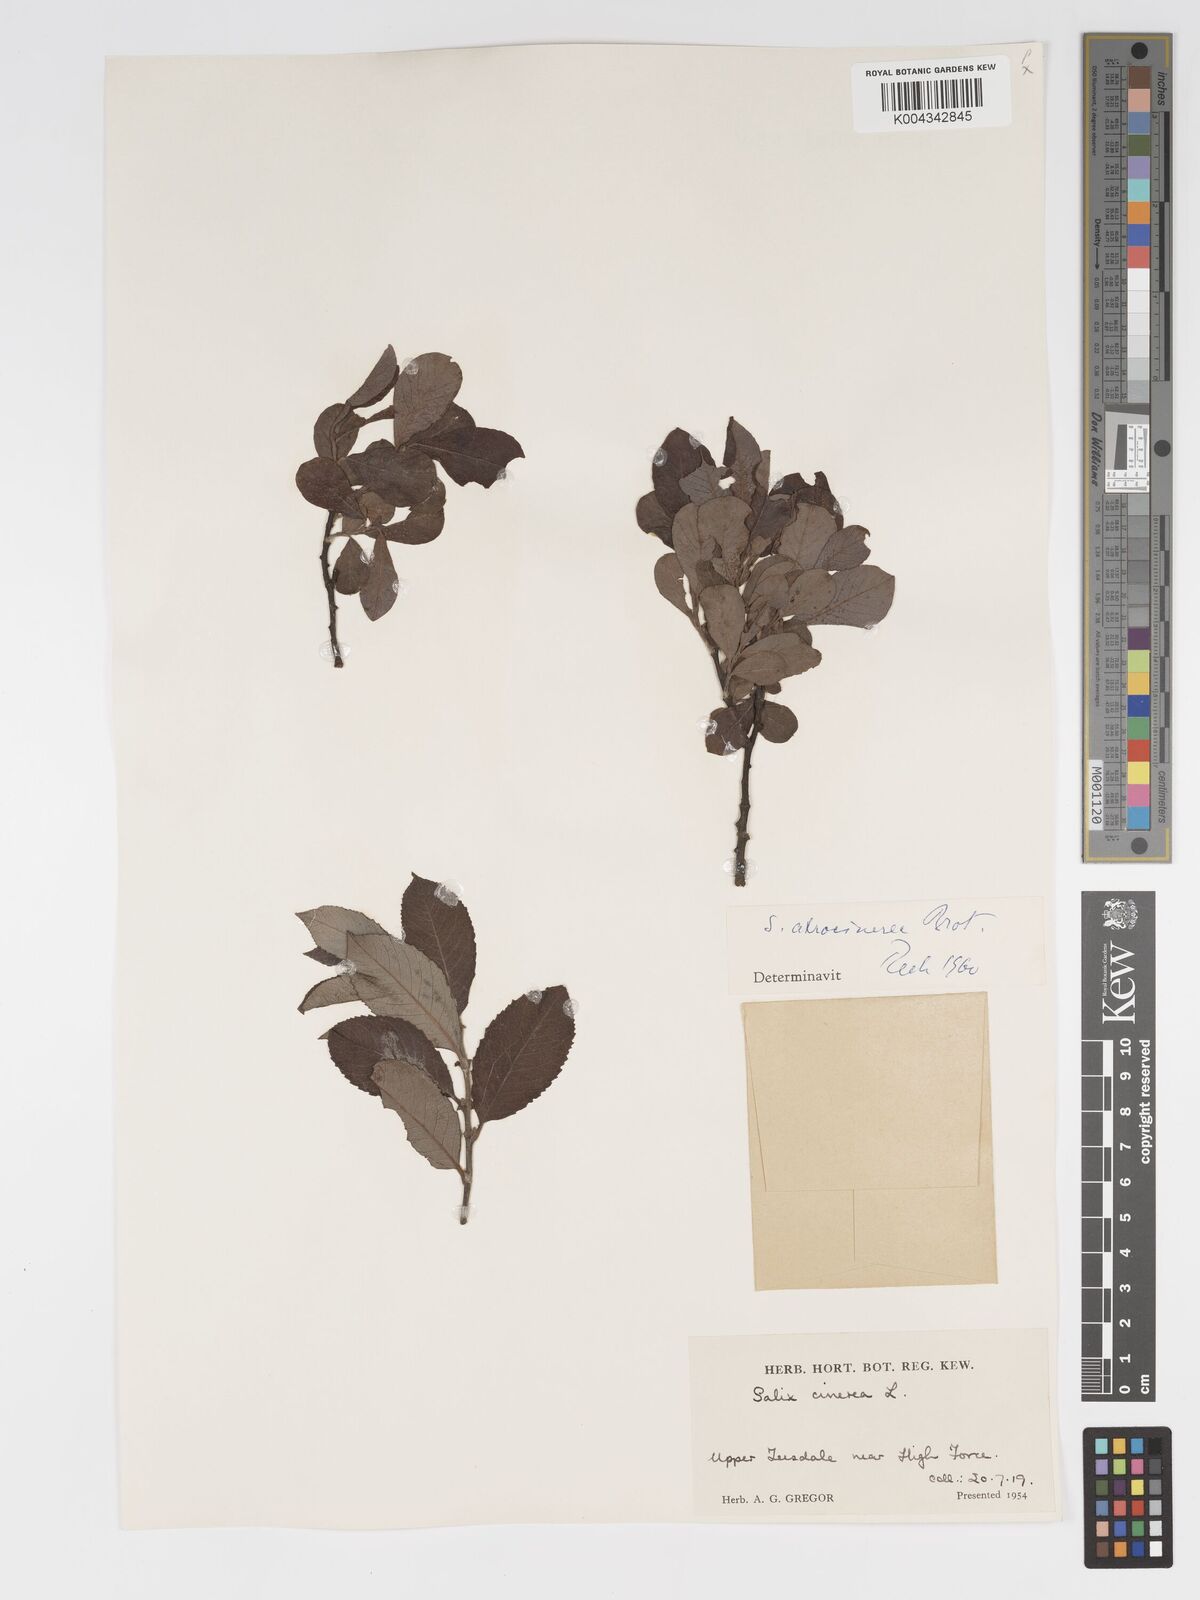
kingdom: Plantae
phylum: Tracheophyta
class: Magnoliopsida
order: Malpighiales
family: Salicaceae
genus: Salix
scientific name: Salix atrocinerea
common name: Rusty willow
